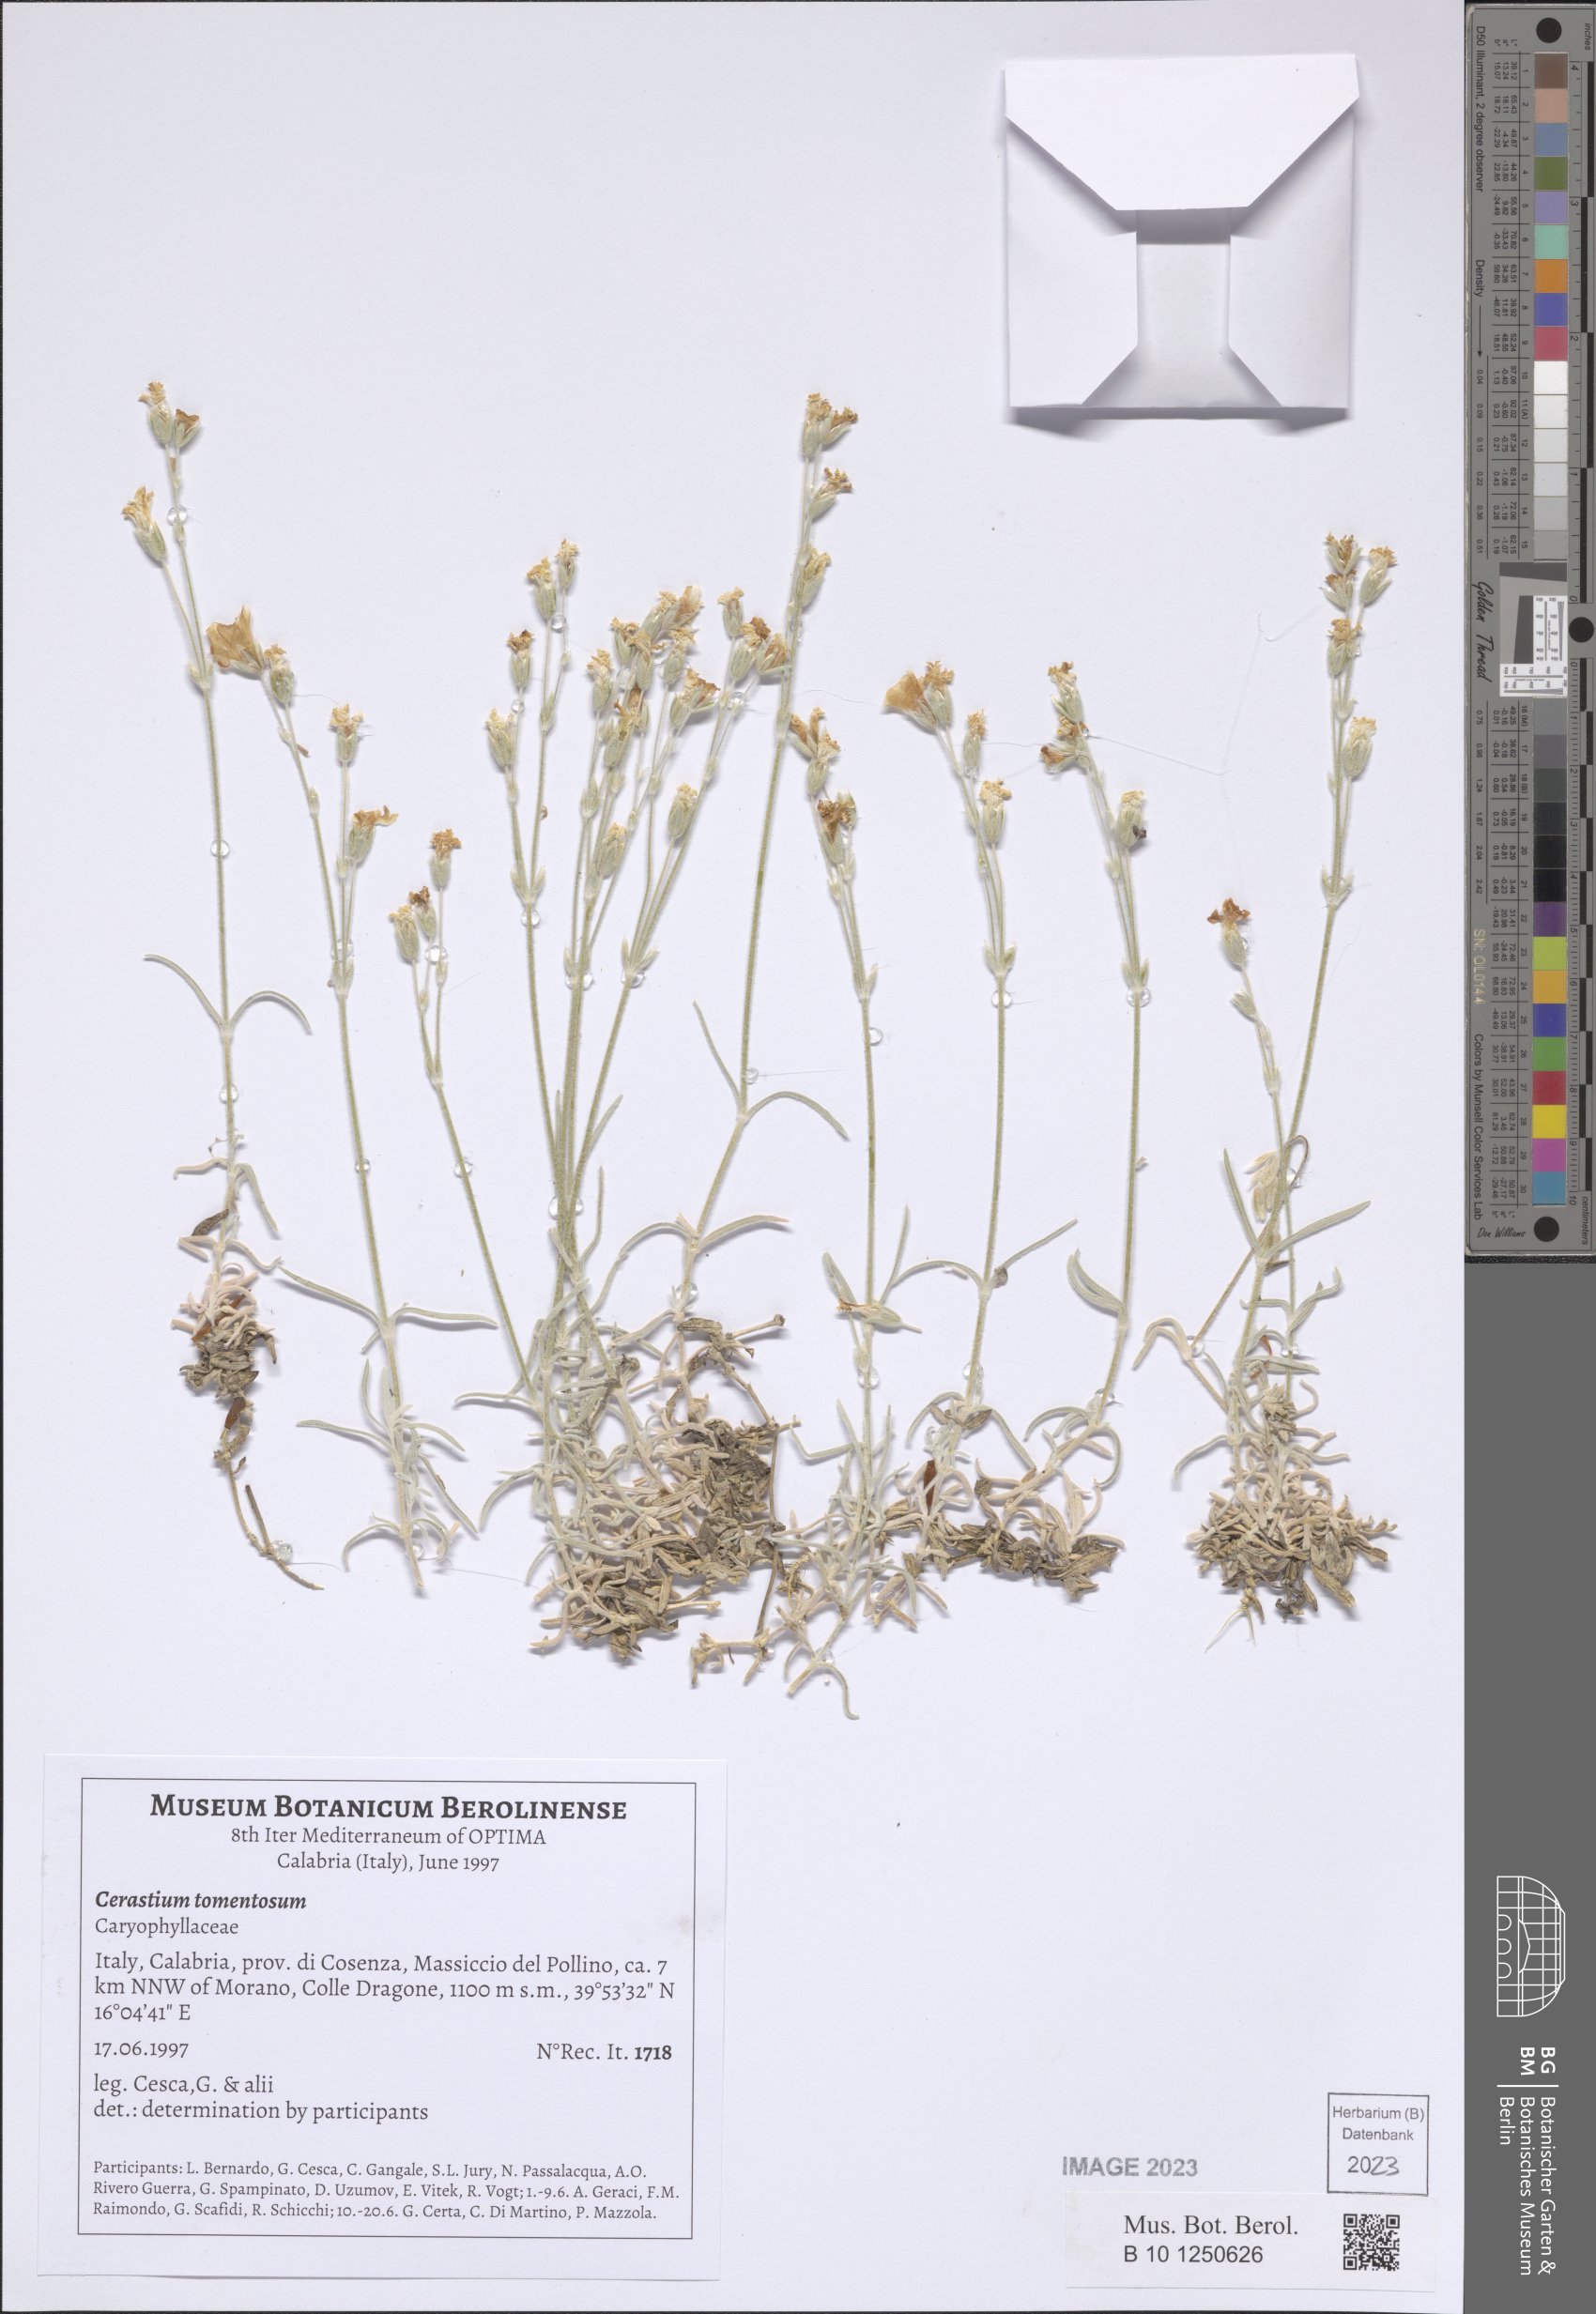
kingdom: Plantae
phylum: Tracheophyta
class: Magnoliopsida
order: Caryophyllales
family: Caryophyllaceae
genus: Cerastium
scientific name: Cerastium tomentosum
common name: Snow-in-summer
